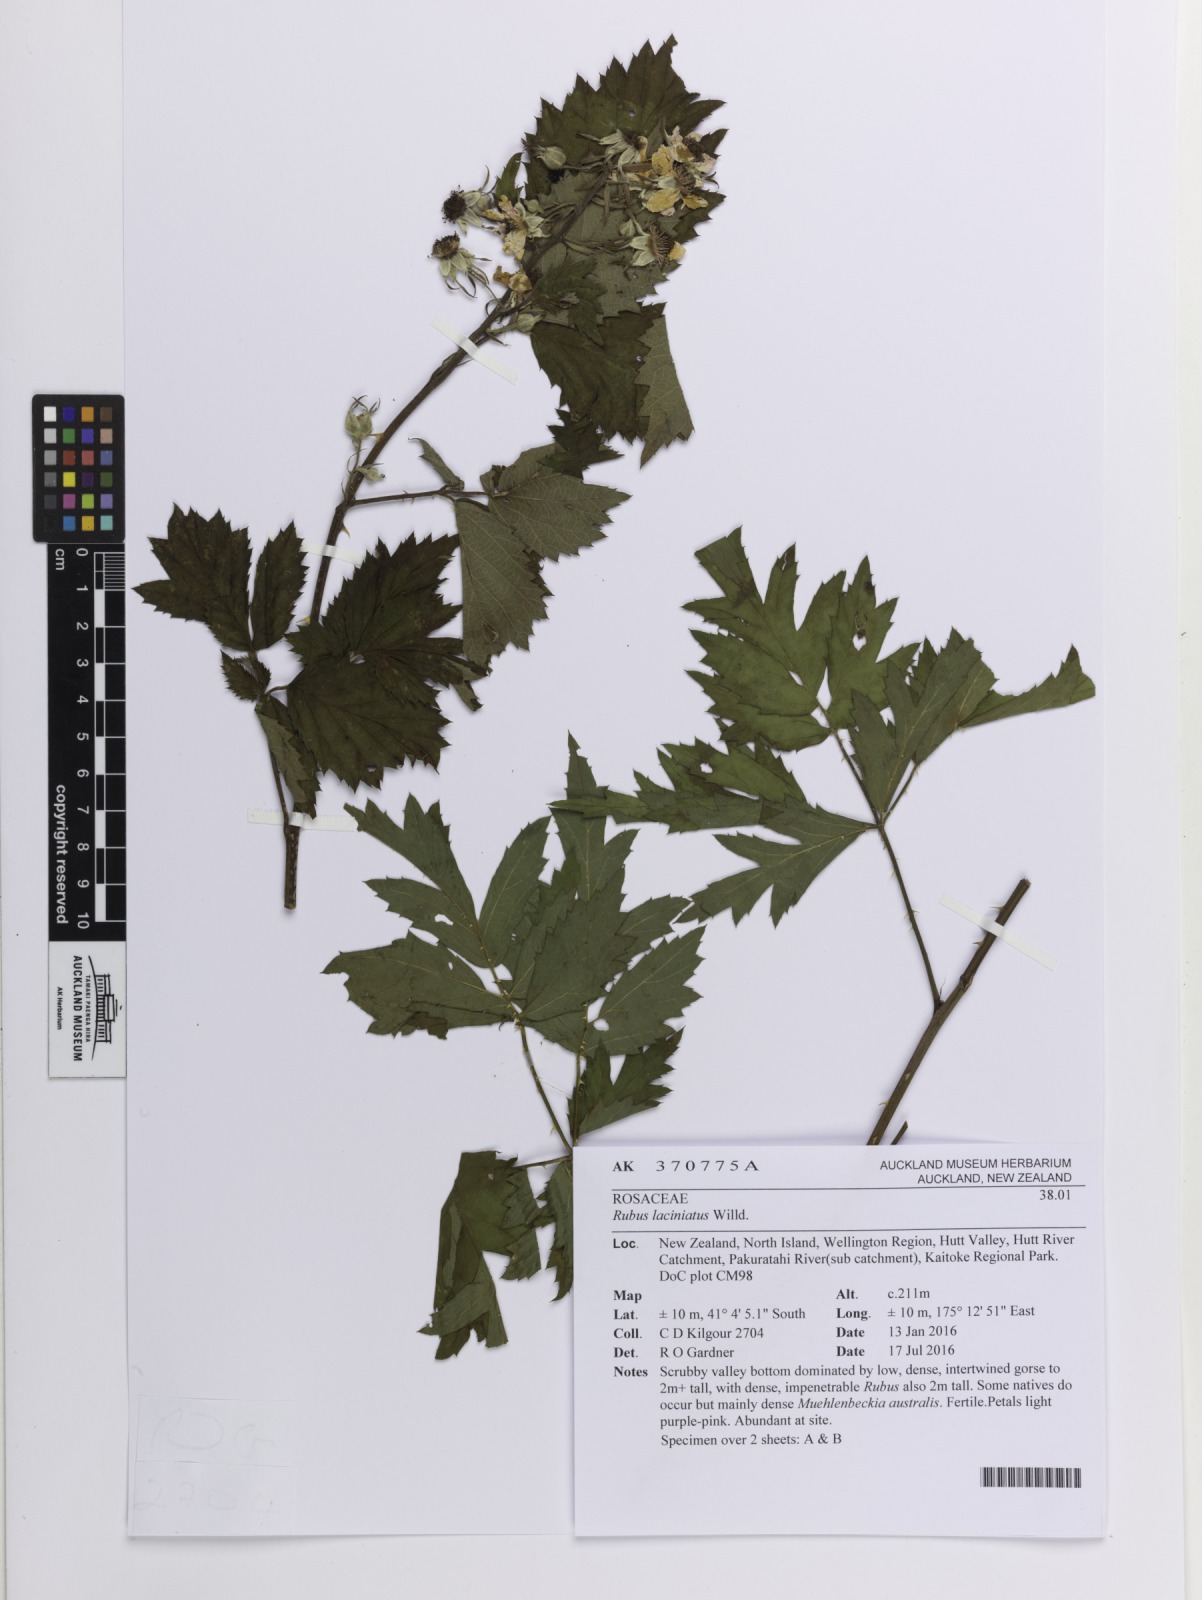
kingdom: Plantae
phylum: Tracheophyta
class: Magnoliopsida
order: Rosales
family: Rosaceae
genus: Rubus
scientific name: Rubus laciniatus
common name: Evergreen blackberry
